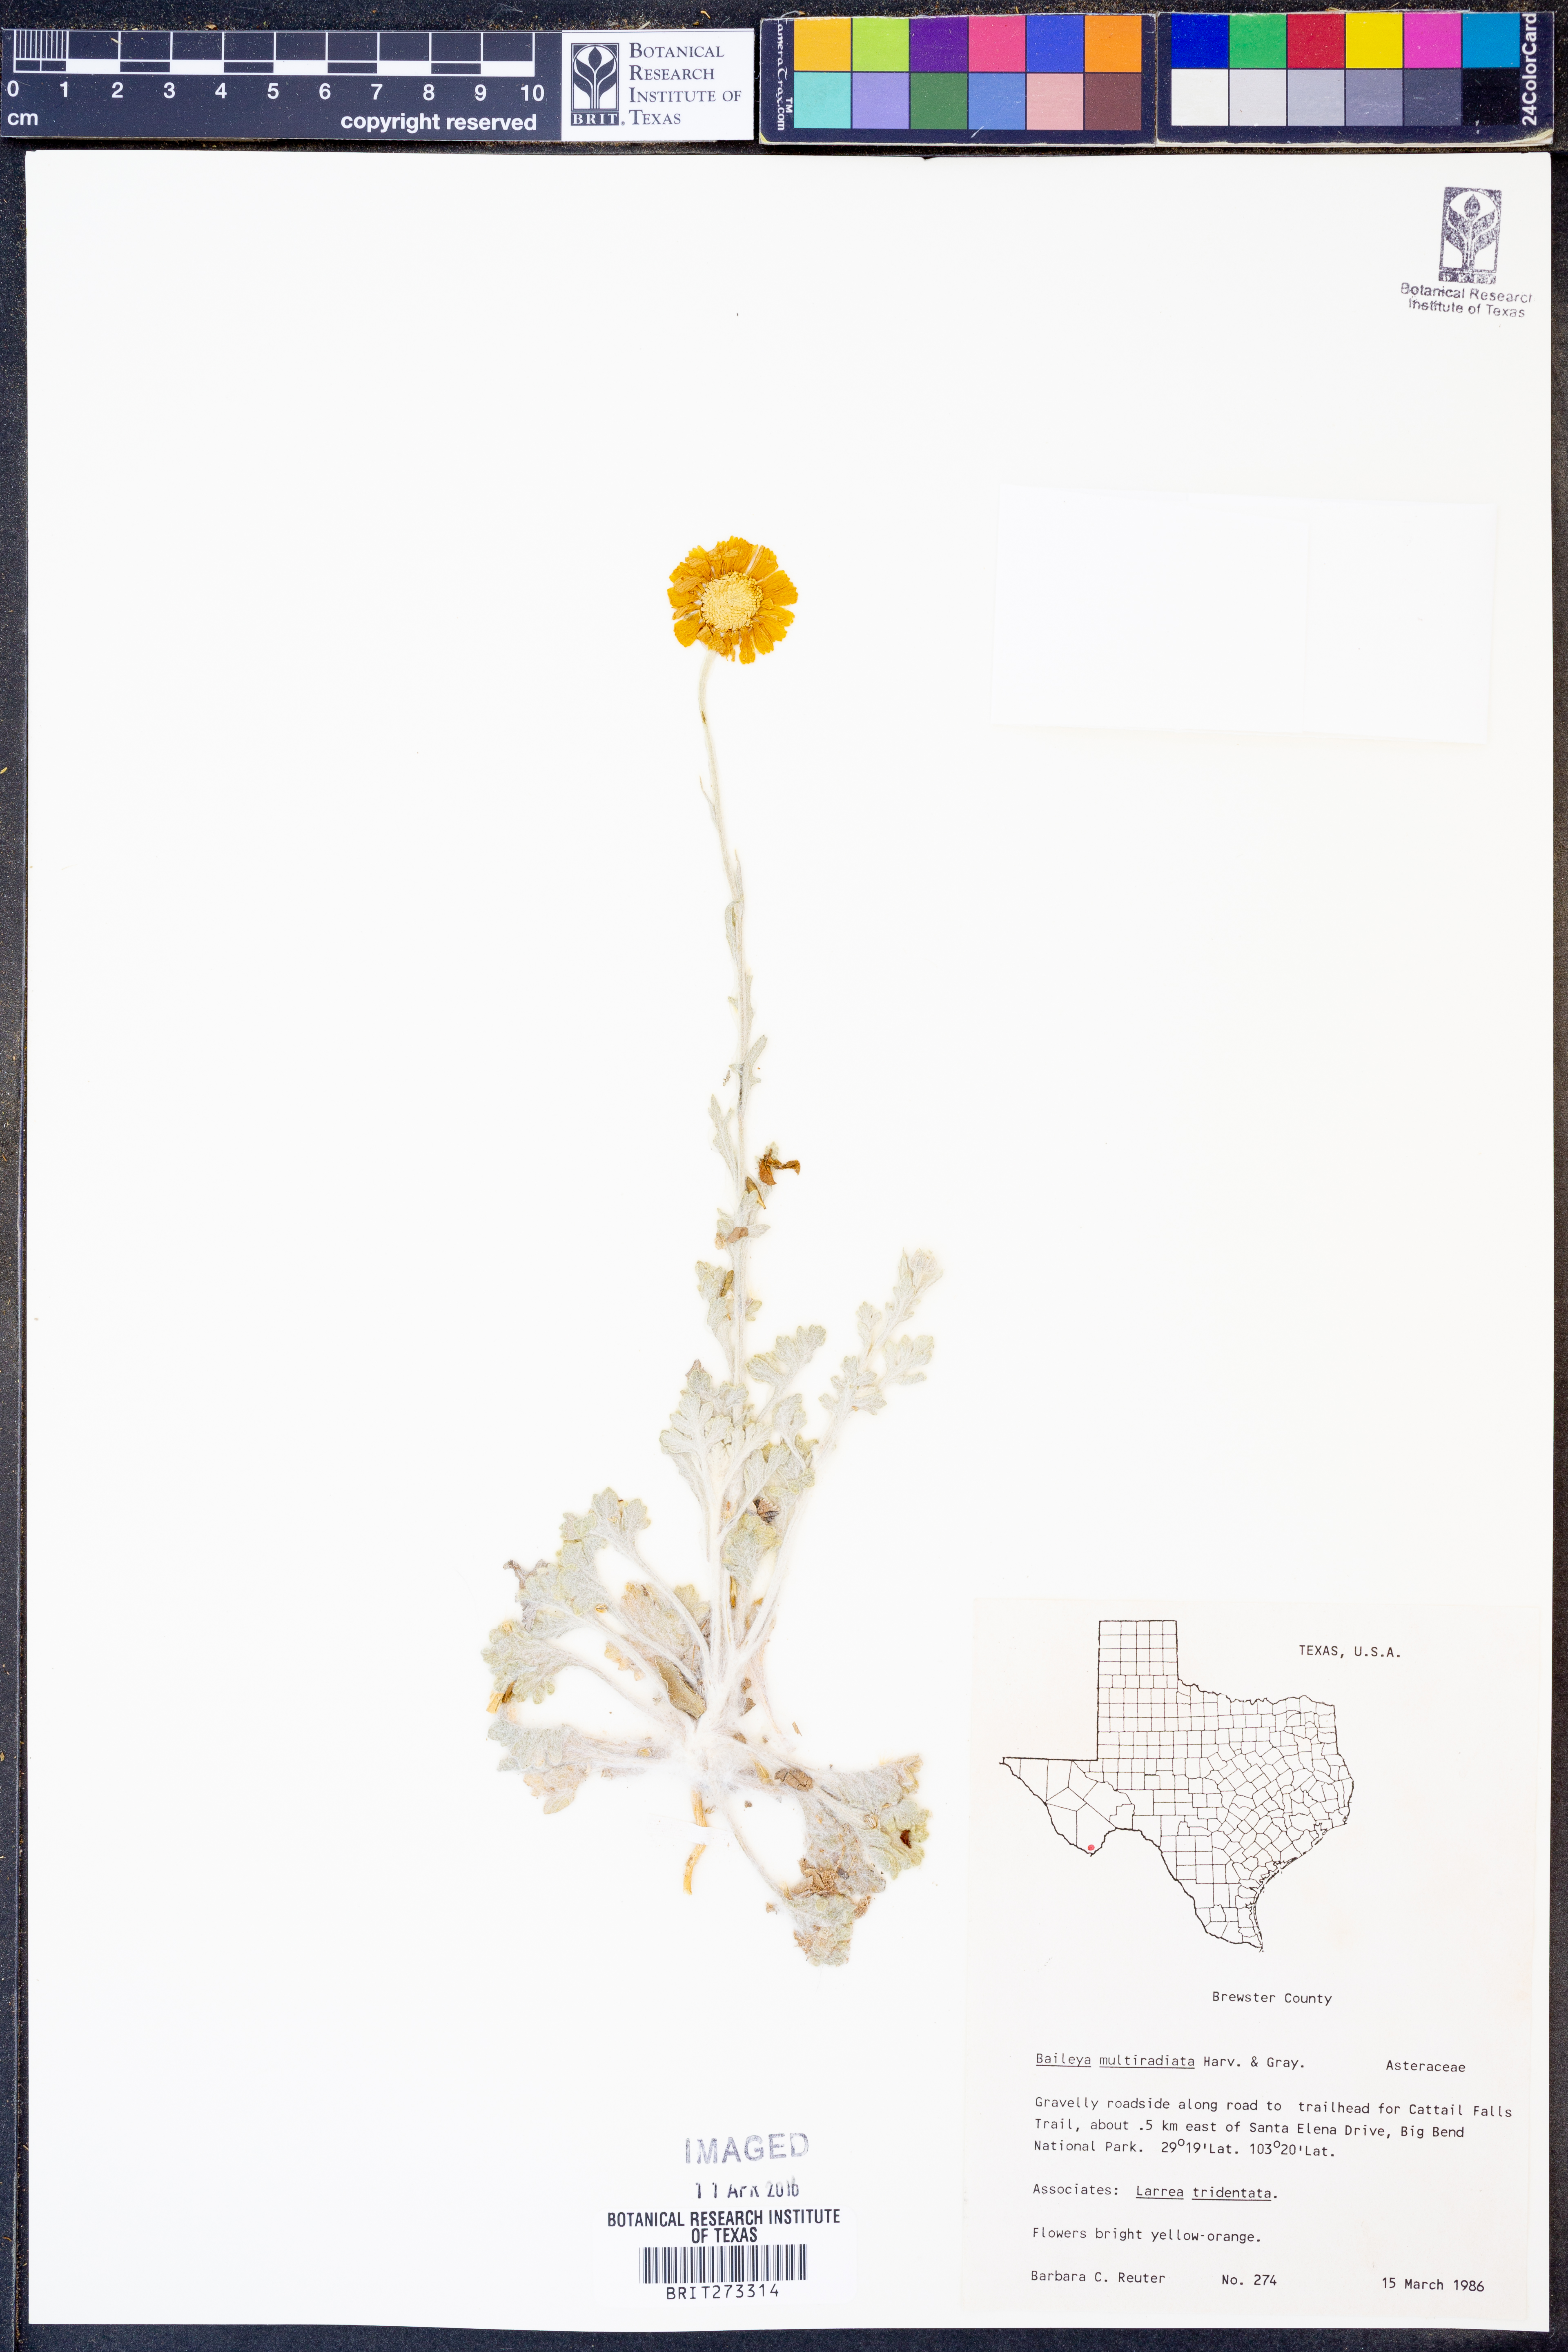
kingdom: Plantae
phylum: Tracheophyta
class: Magnoliopsida
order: Asterales
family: Asteraceae
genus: Baileya
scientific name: Baileya multiradiata
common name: Desert-marigold
